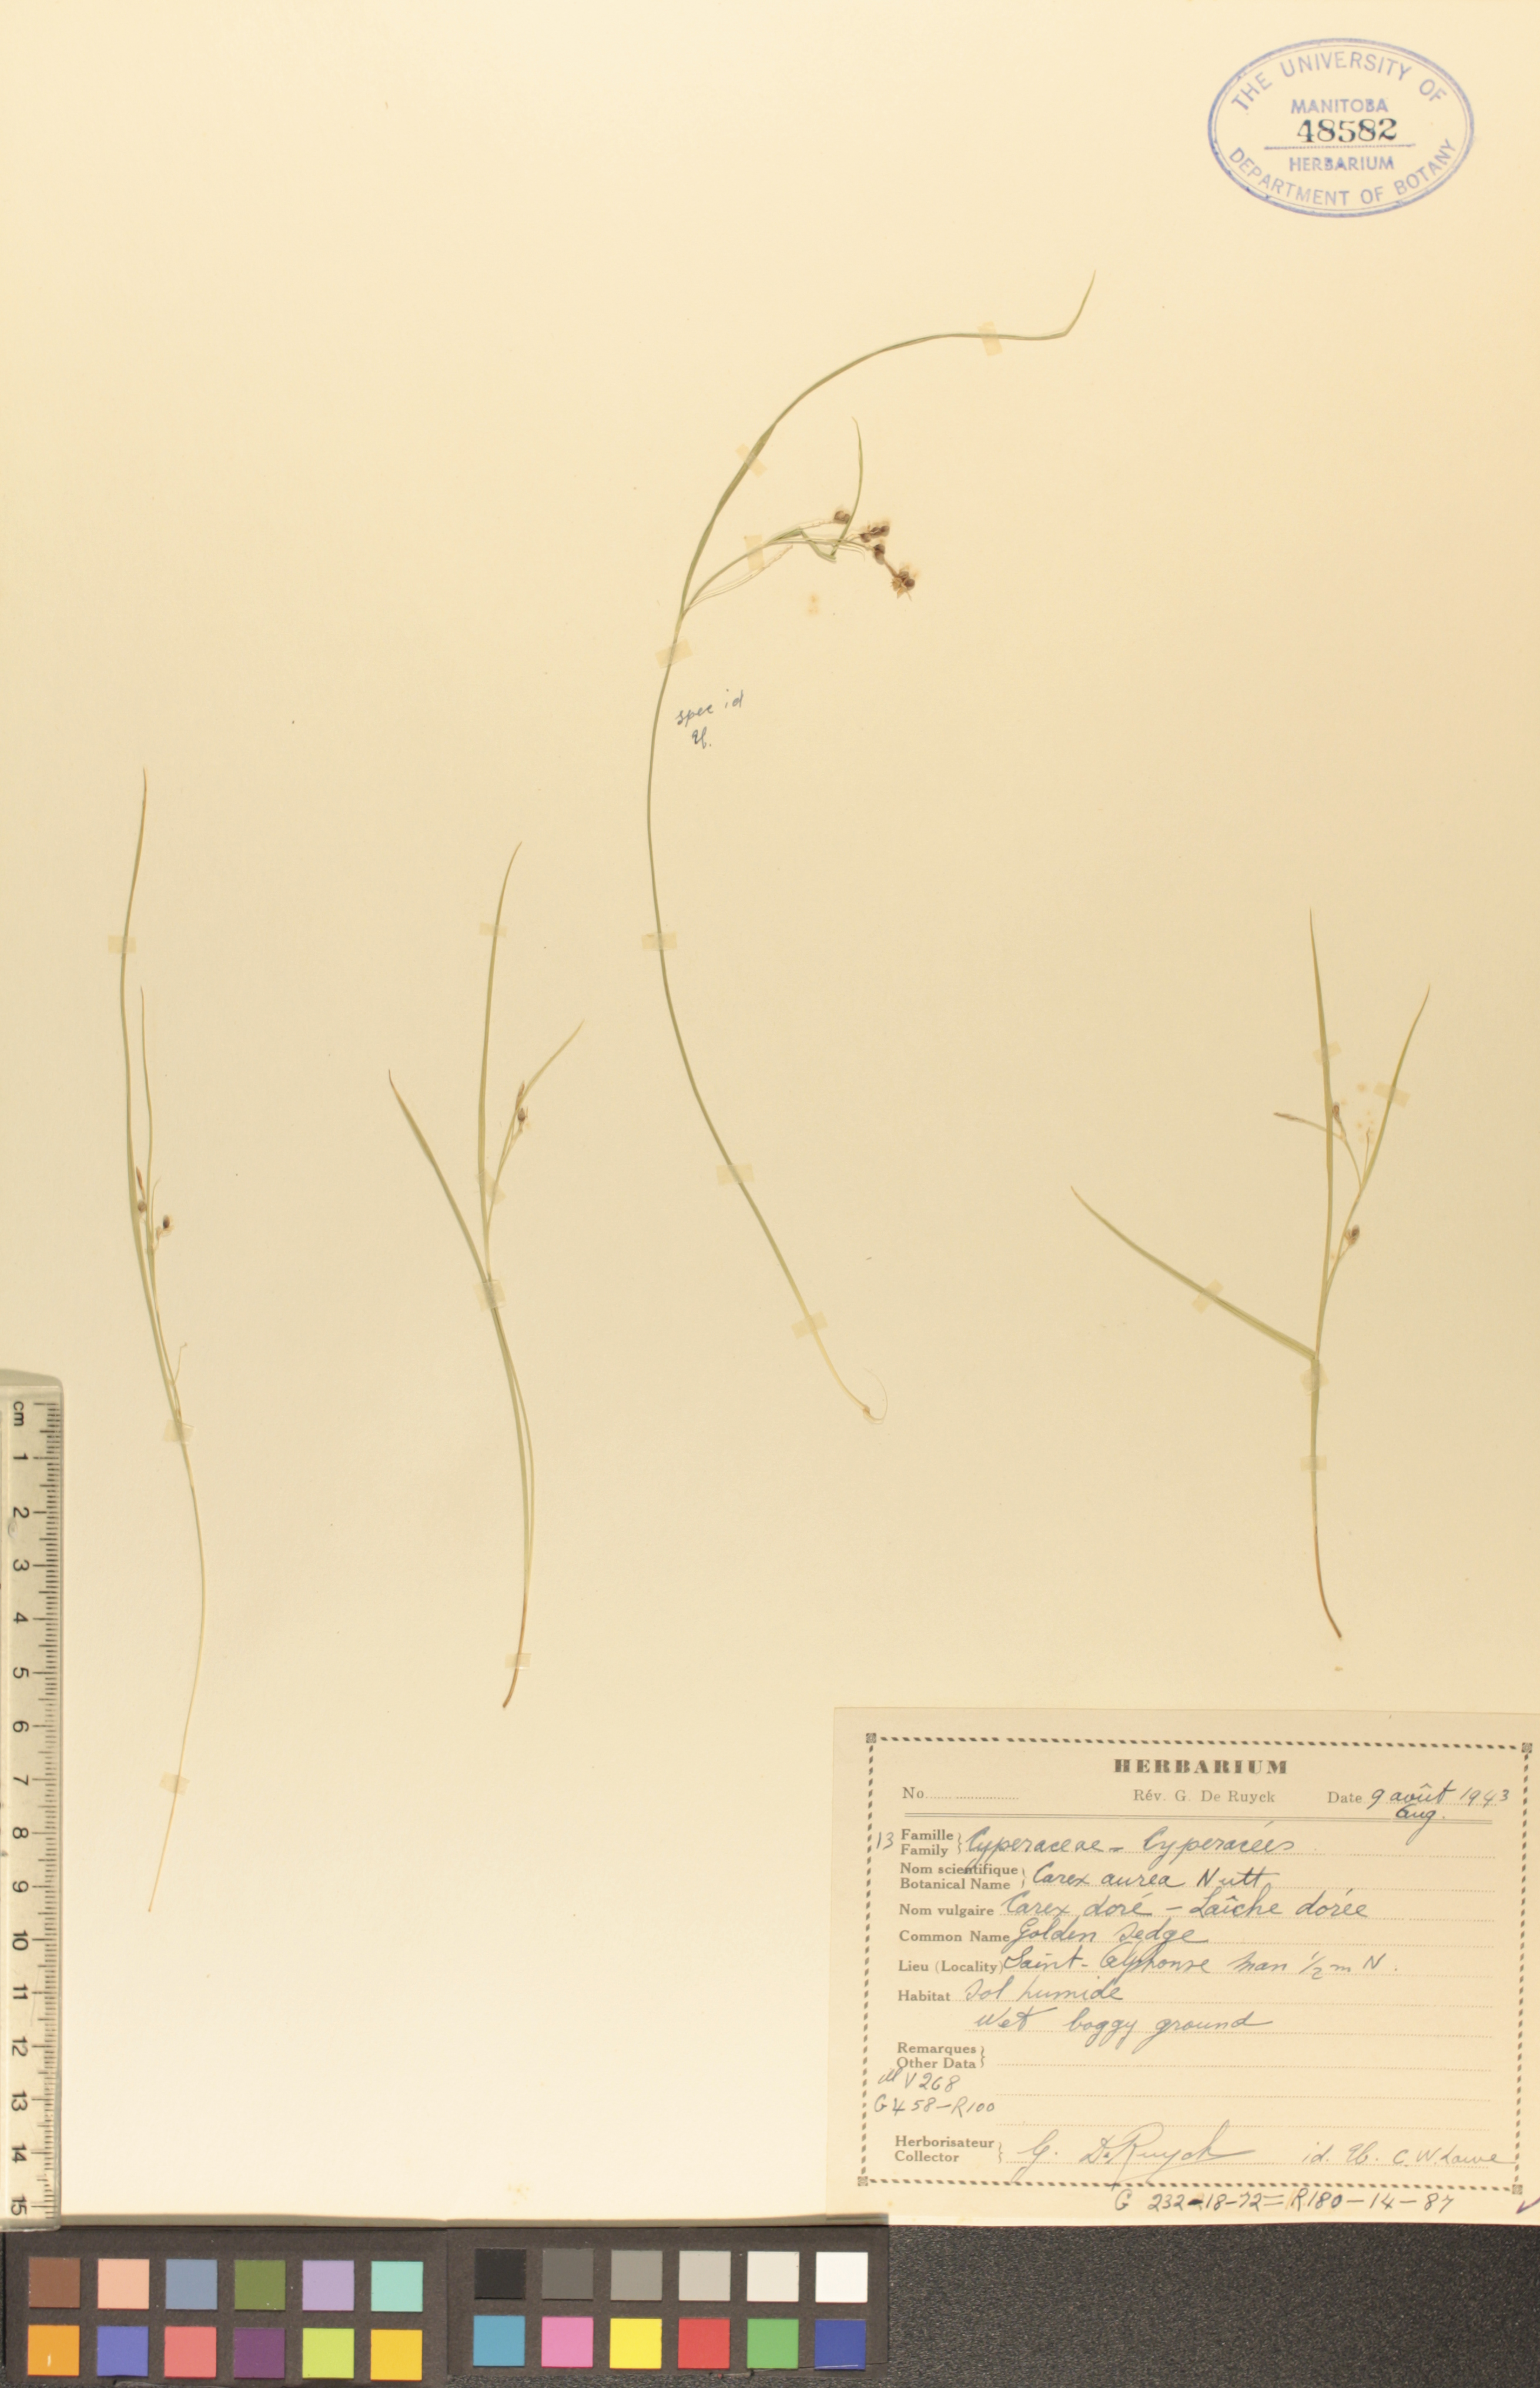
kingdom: Plantae
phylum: Tracheophyta
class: Liliopsida
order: Poales
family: Cyperaceae
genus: Carex
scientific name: Carex aurea
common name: Golden sedge
